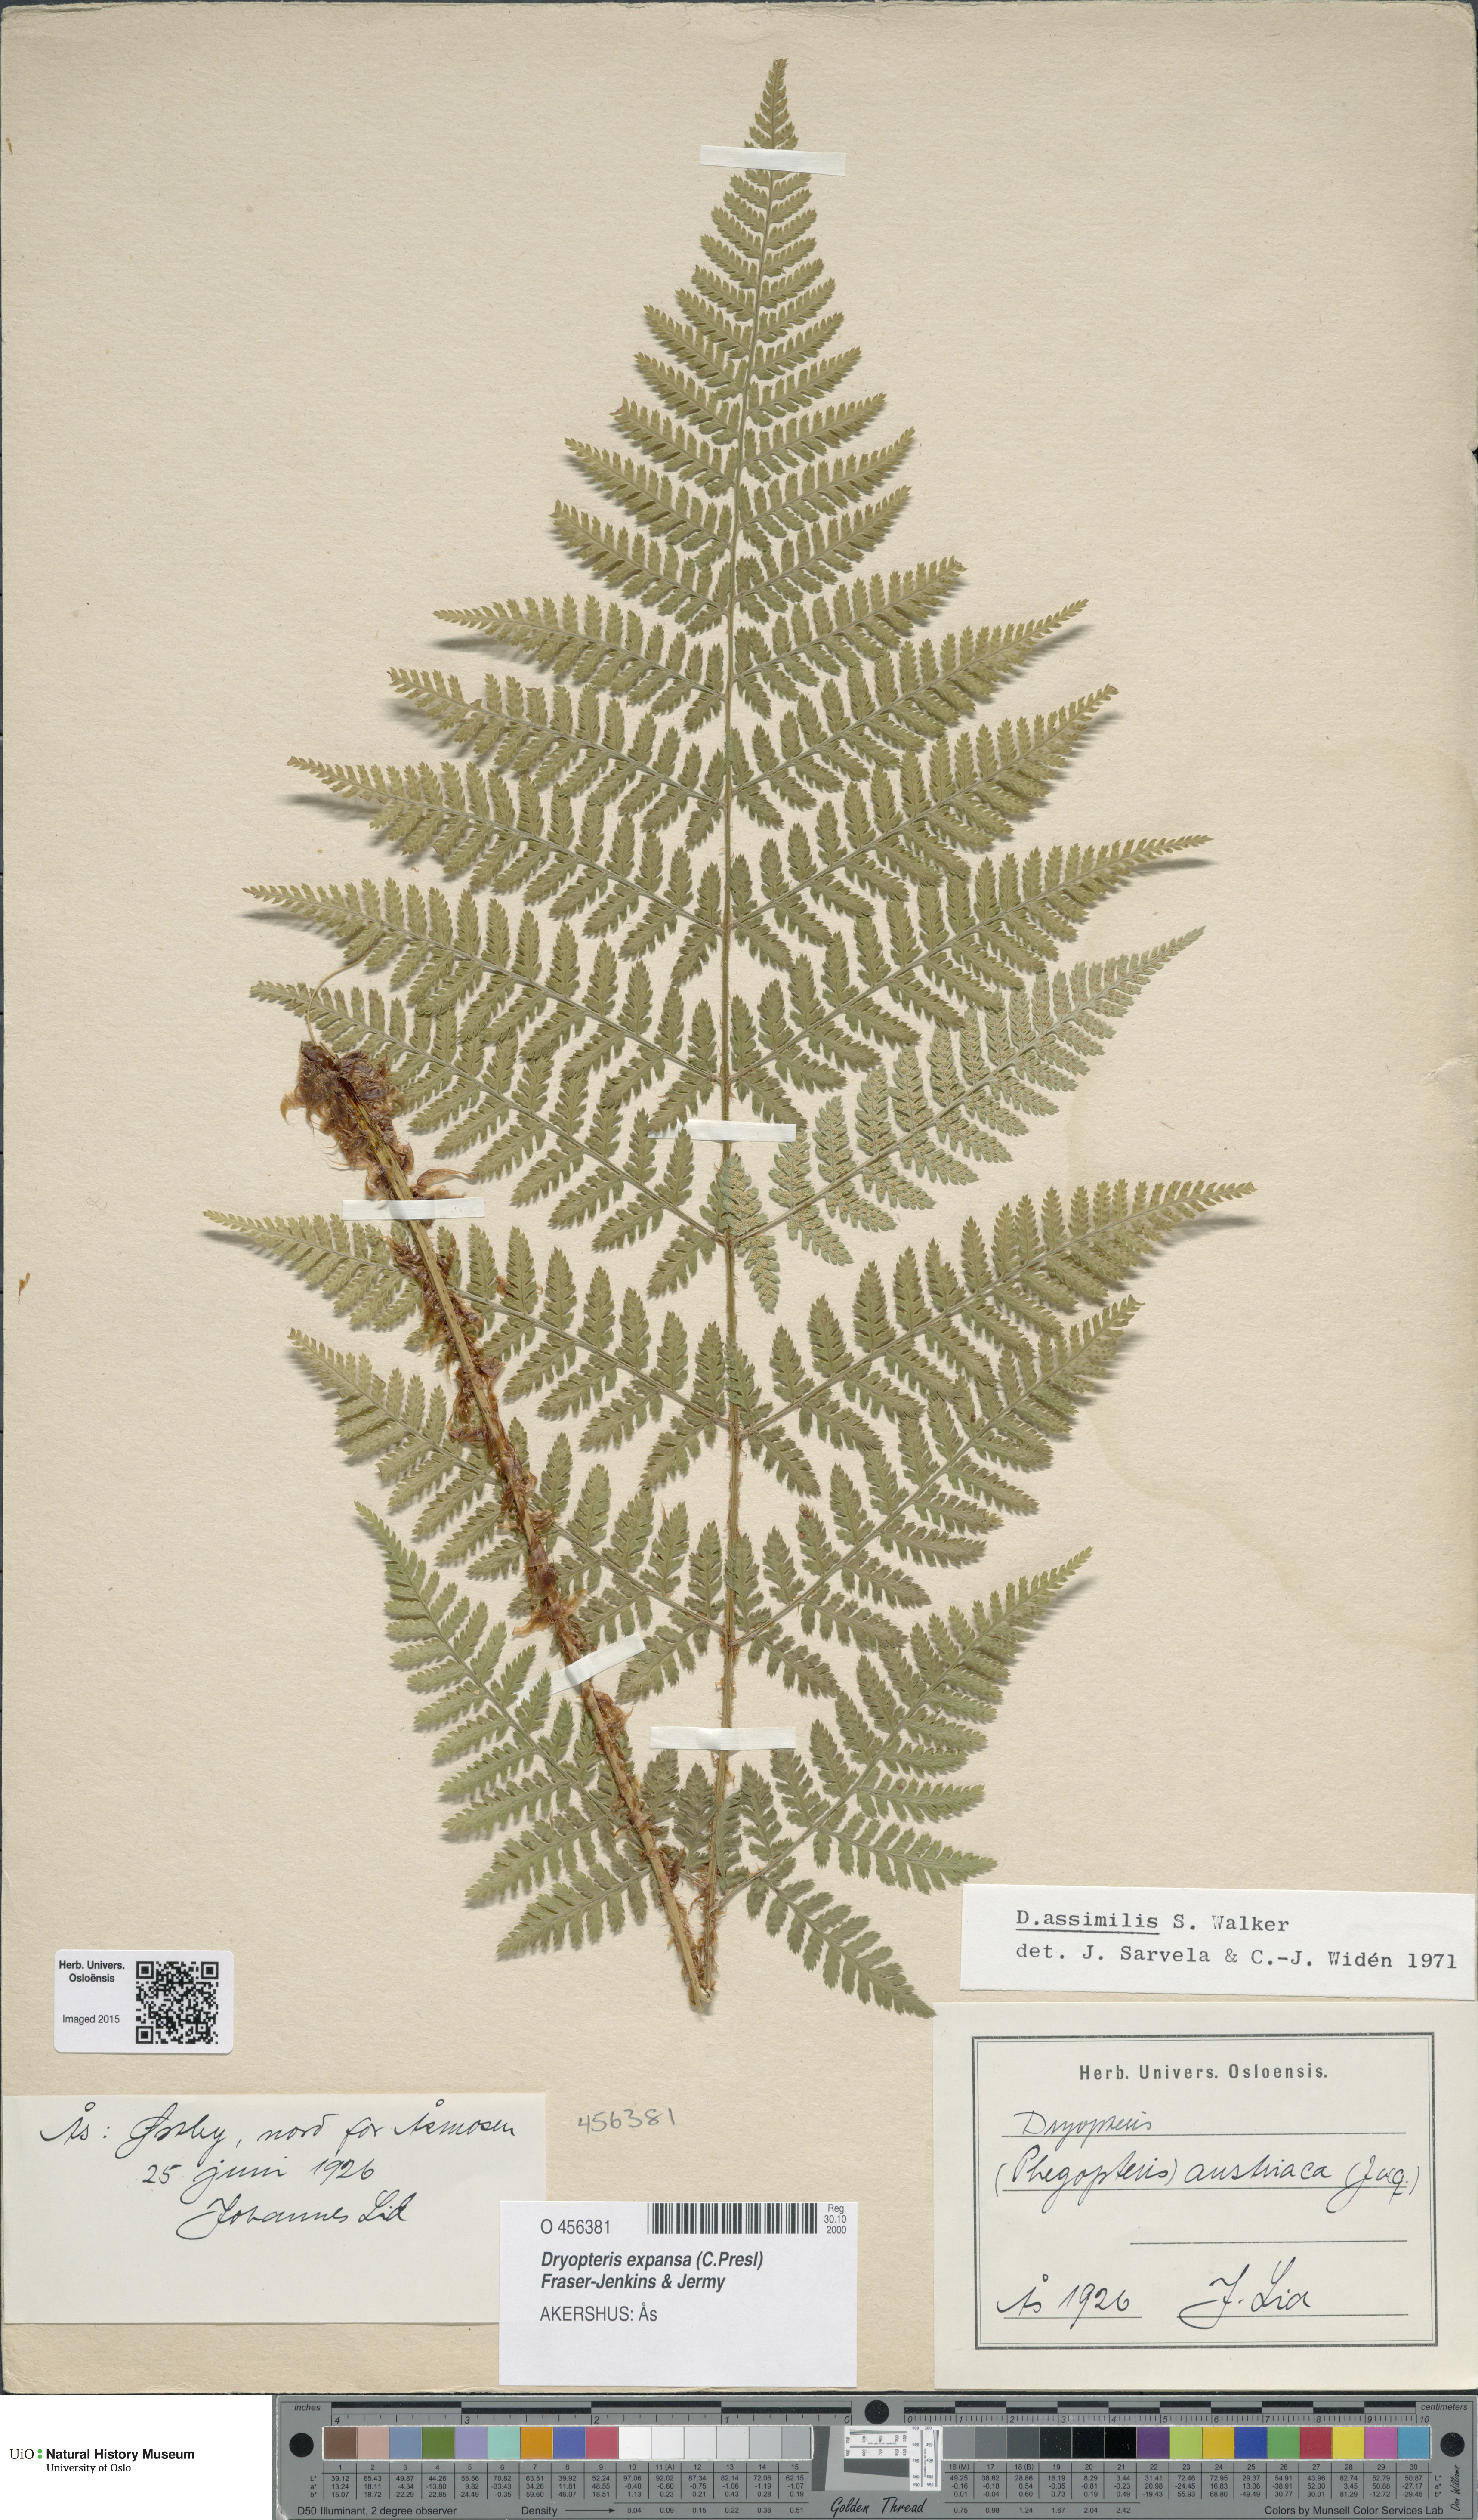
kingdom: Plantae
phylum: Tracheophyta
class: Polypodiopsida
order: Polypodiales
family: Dryopteridaceae
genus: Dryopteris
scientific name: Dryopteris expansa
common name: Northern buckler fern
